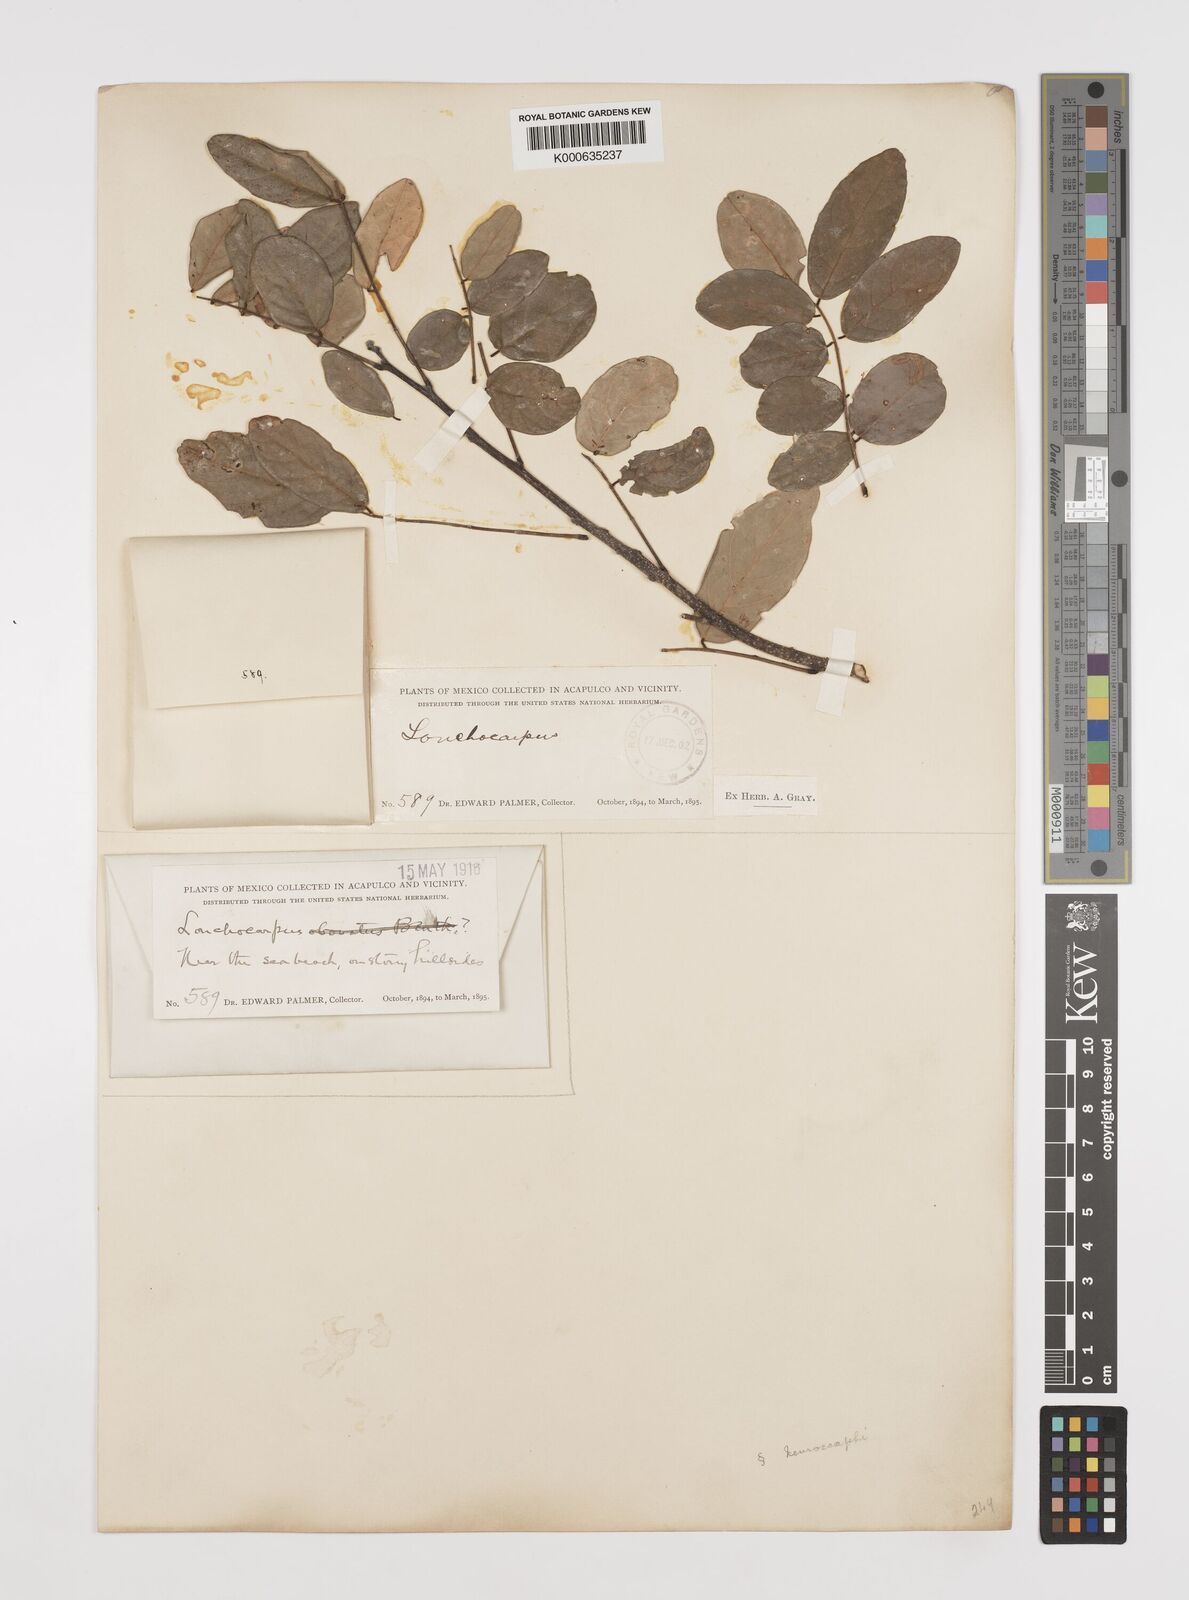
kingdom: Plantae
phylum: Tracheophyta
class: Magnoliopsida
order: Fabales
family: Fabaceae
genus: Lonchocarpus
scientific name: Lonchocarpus constrictus
